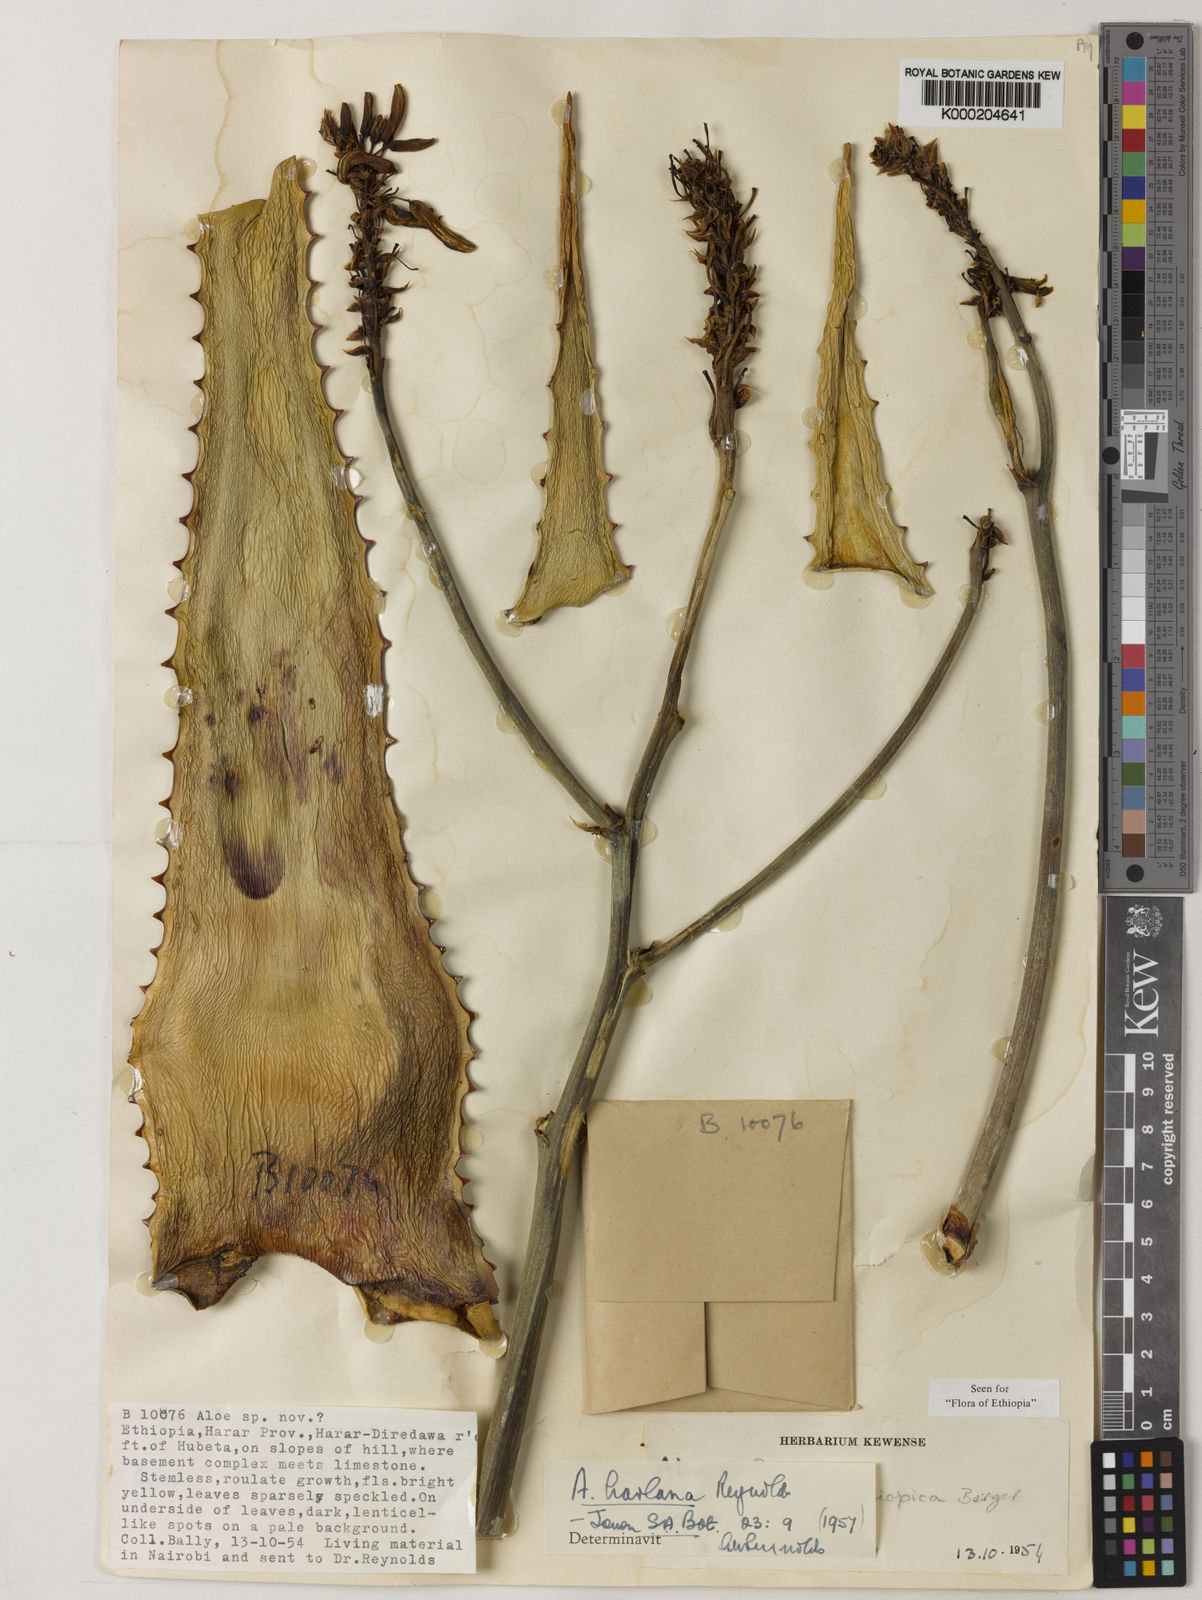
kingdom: Plantae
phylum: Tracheophyta
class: Liliopsida
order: Asparagales
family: Asphodelaceae
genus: Aloe
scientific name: Aloe harlana
